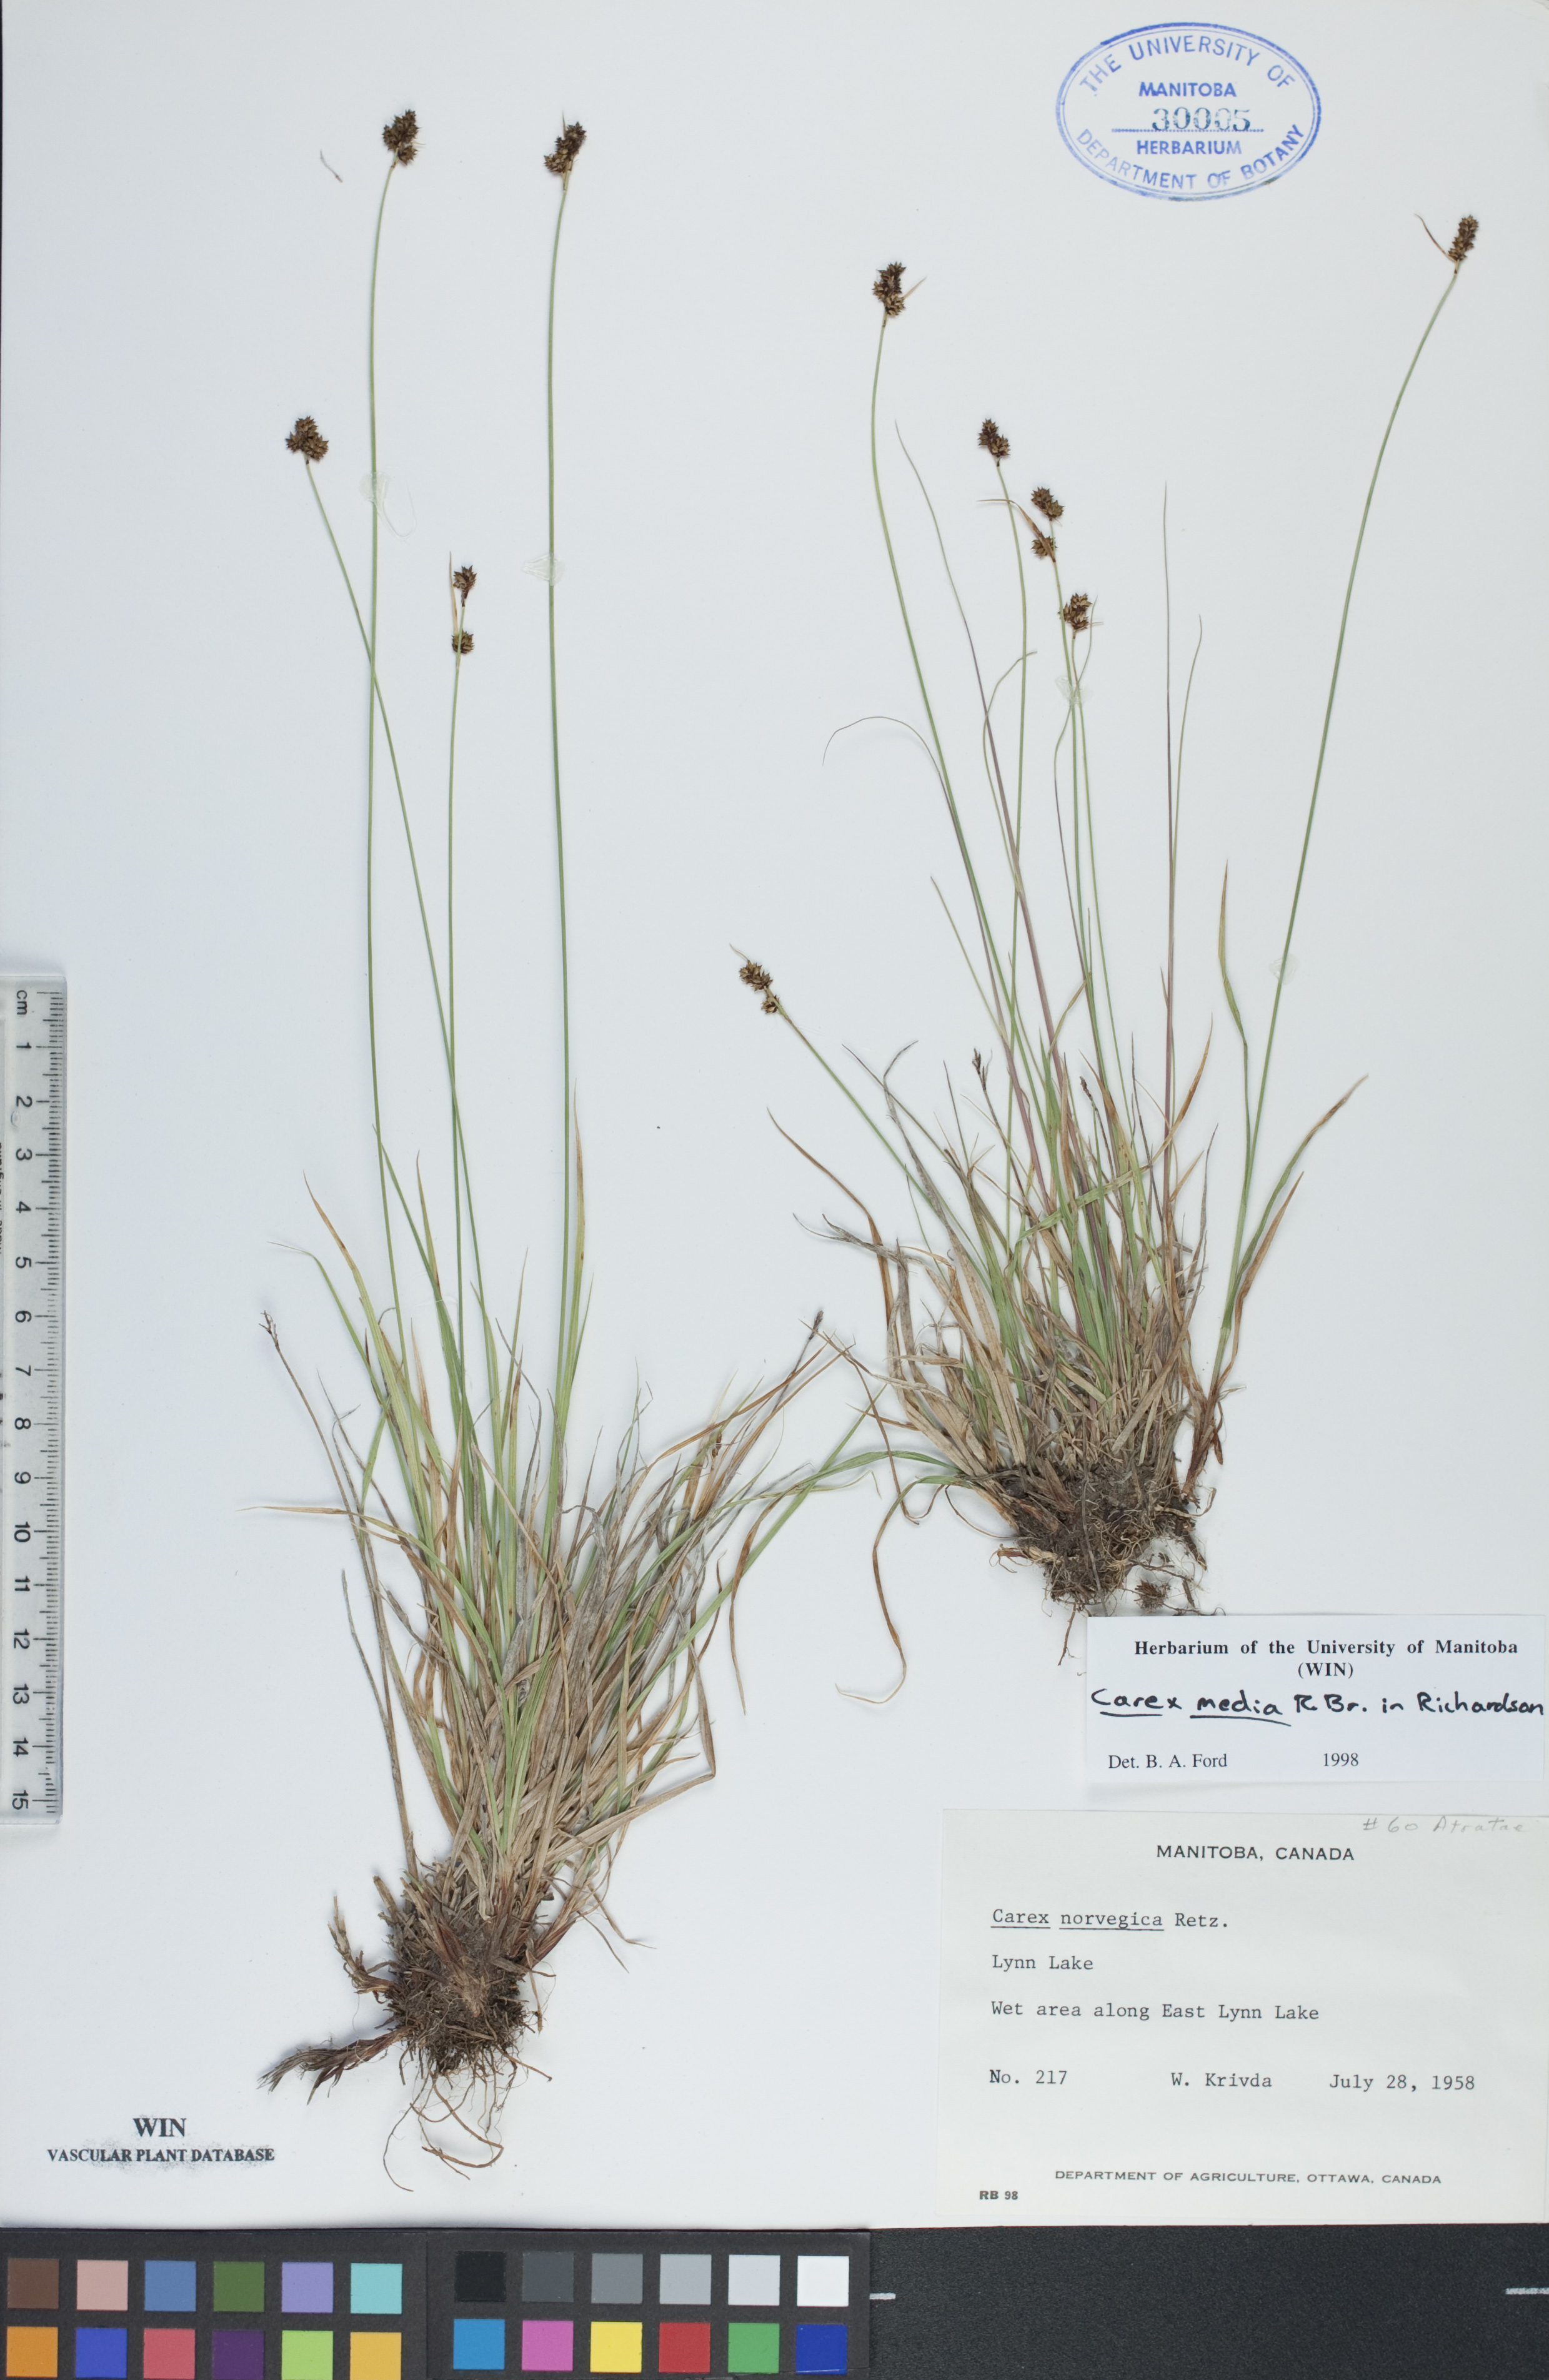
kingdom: Plantae
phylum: Tracheophyta
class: Liliopsida
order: Poales
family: Cyperaceae
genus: Carex
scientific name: Carex media
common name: Alpine sedge
